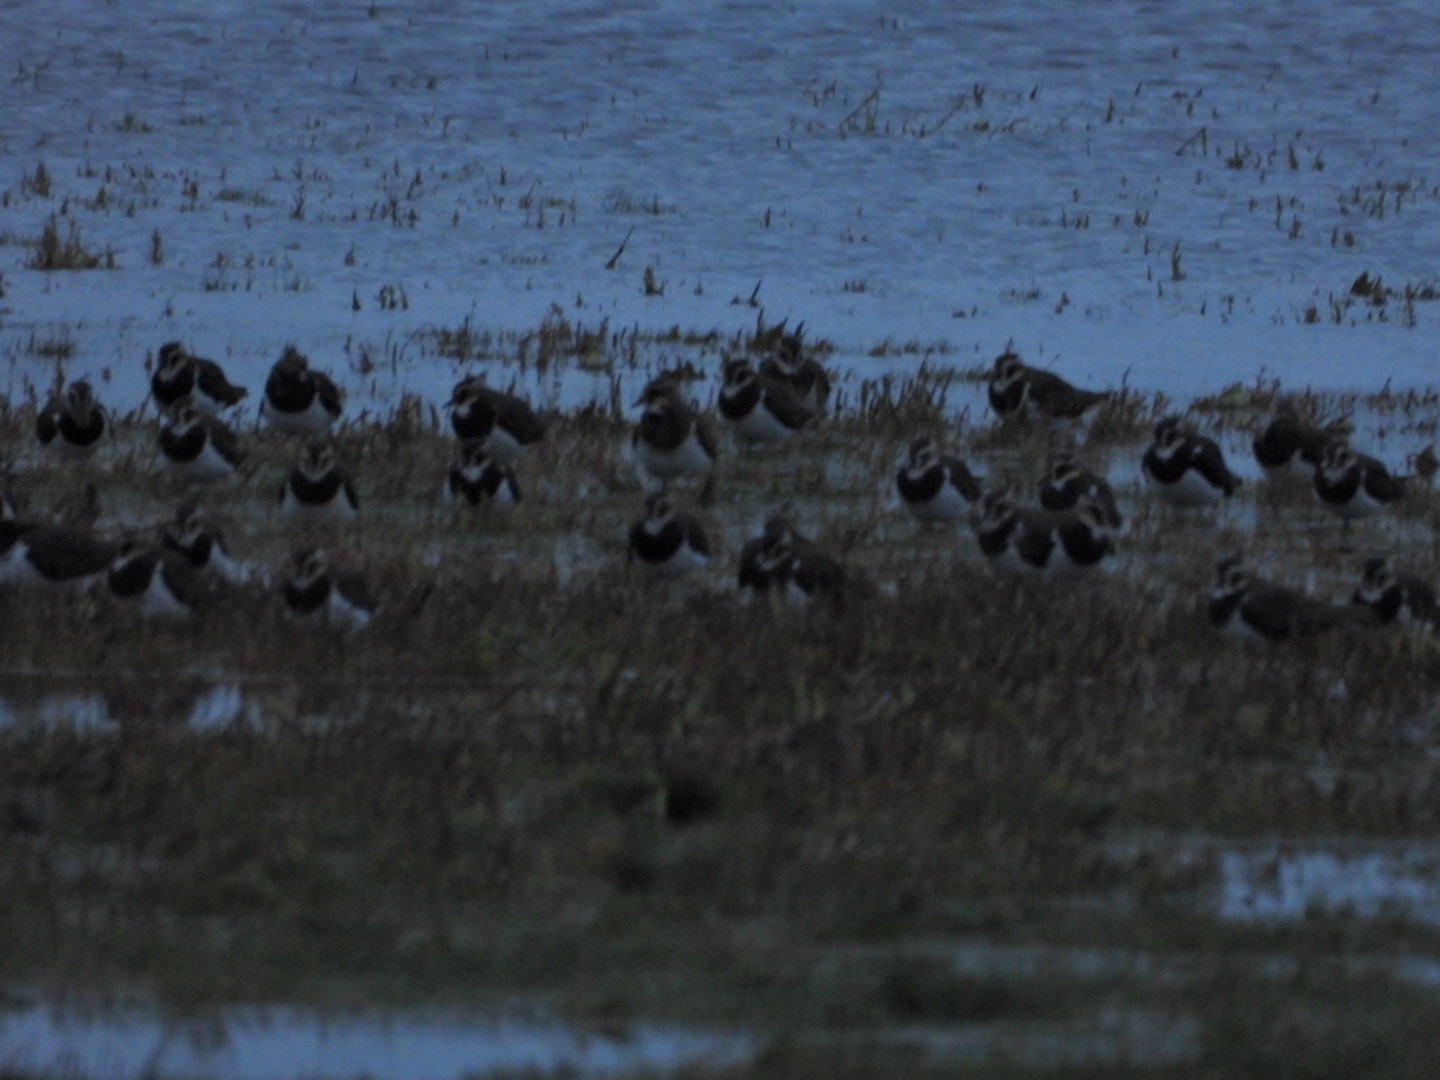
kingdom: Animalia
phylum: Chordata
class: Aves
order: Charadriiformes
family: Charadriidae
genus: Vanellus
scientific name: Vanellus vanellus
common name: Vibe
